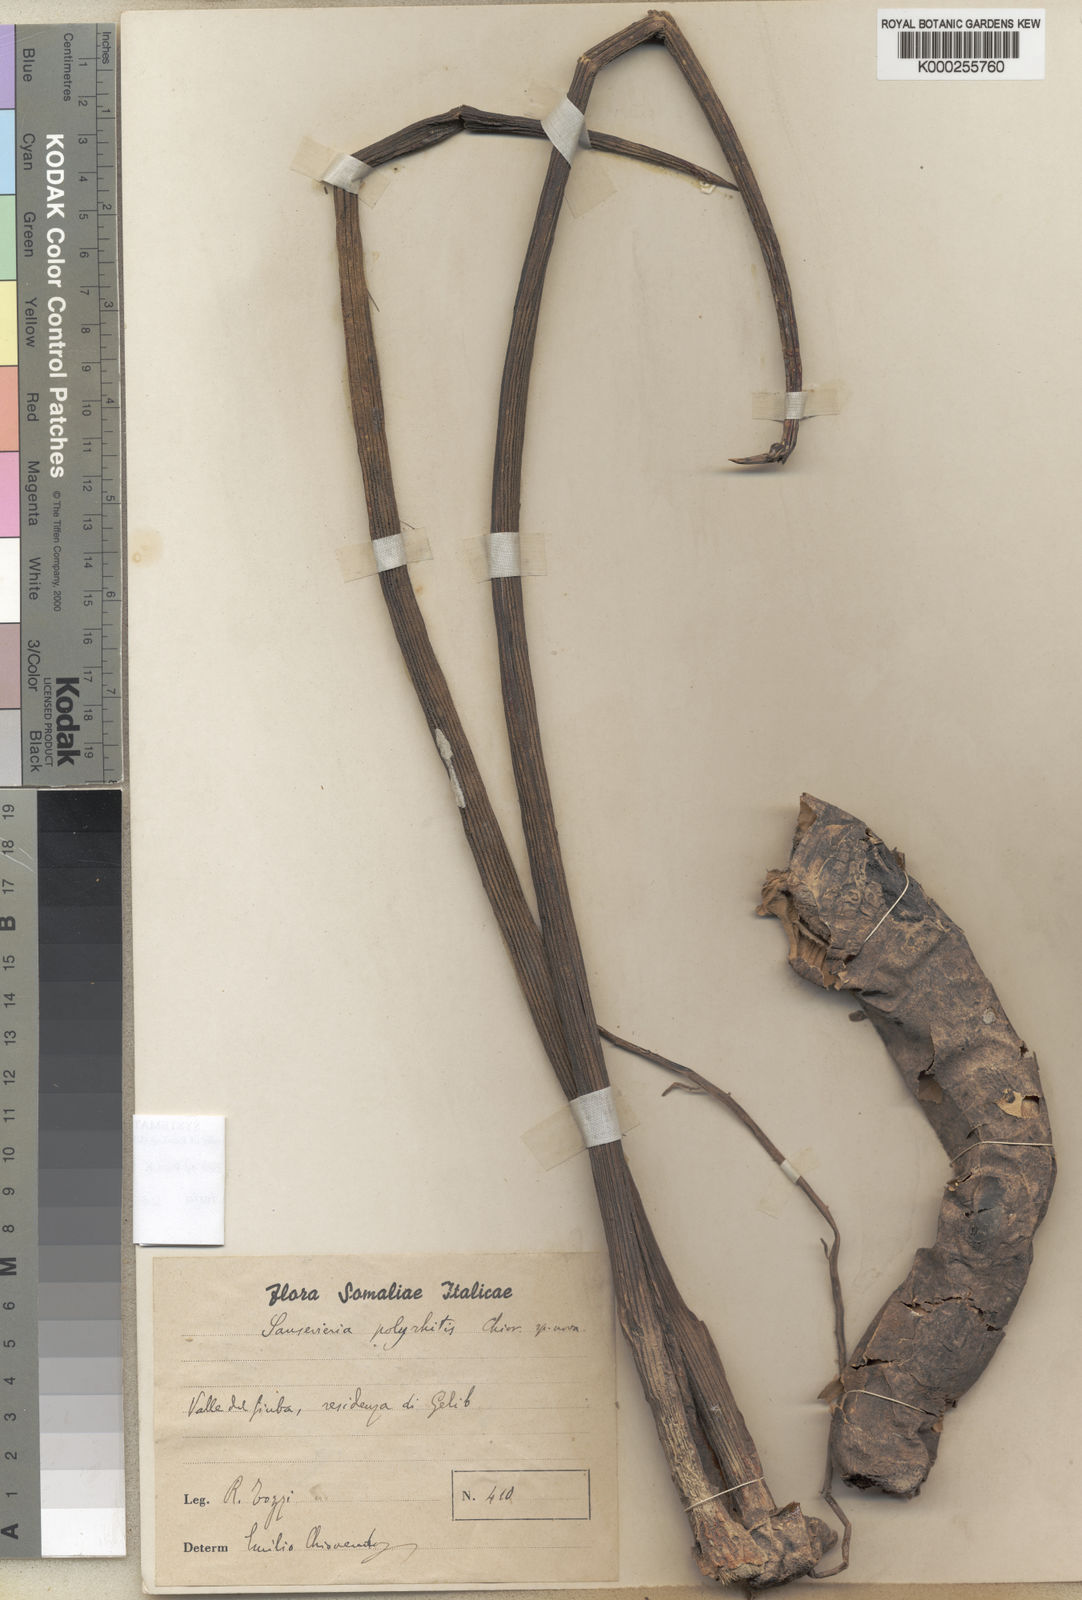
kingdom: Plantae
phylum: Tracheophyta
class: Liliopsida
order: Asparagales
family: Asparagaceae
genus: Dracaena
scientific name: Dracaena volkensii
